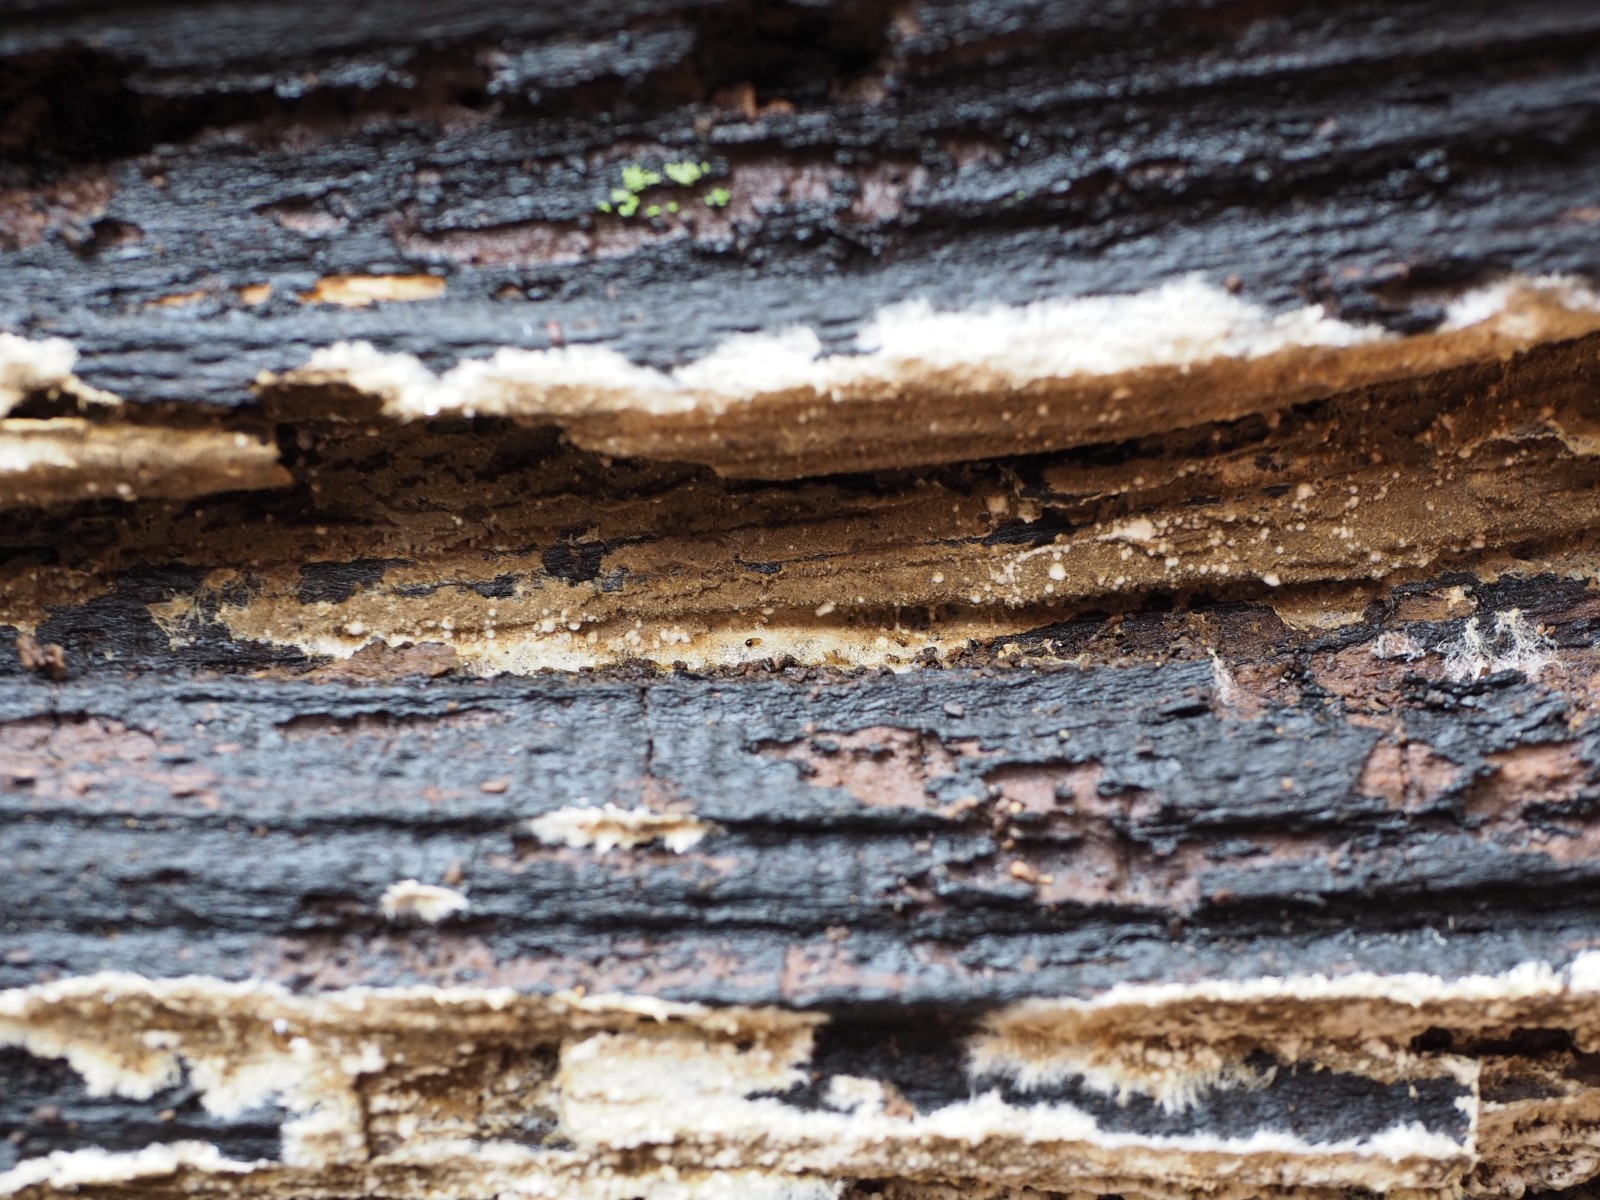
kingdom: Fungi
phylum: Basidiomycota
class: Agaricomycetes
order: Boletales
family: Coniophoraceae
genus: Penttilamyces
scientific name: Penttilamyces olivascens
